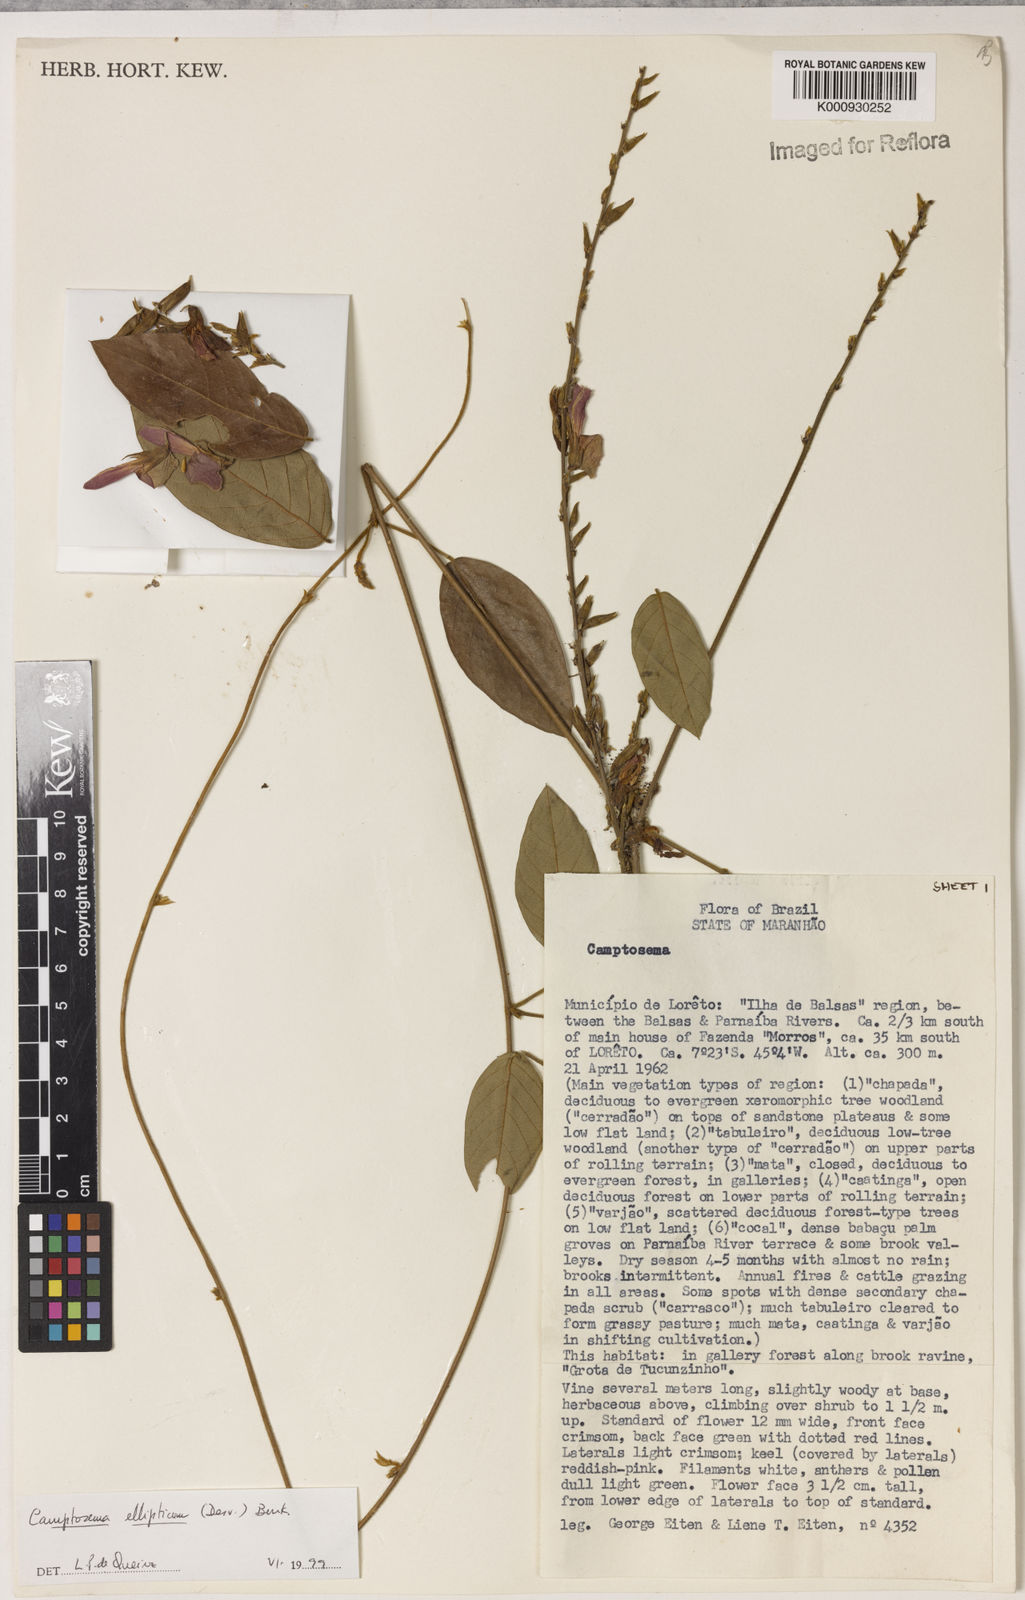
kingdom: Plantae
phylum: Tracheophyta
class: Magnoliopsida
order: Fabales
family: Fabaceae
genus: Camptosema
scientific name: Camptosema
